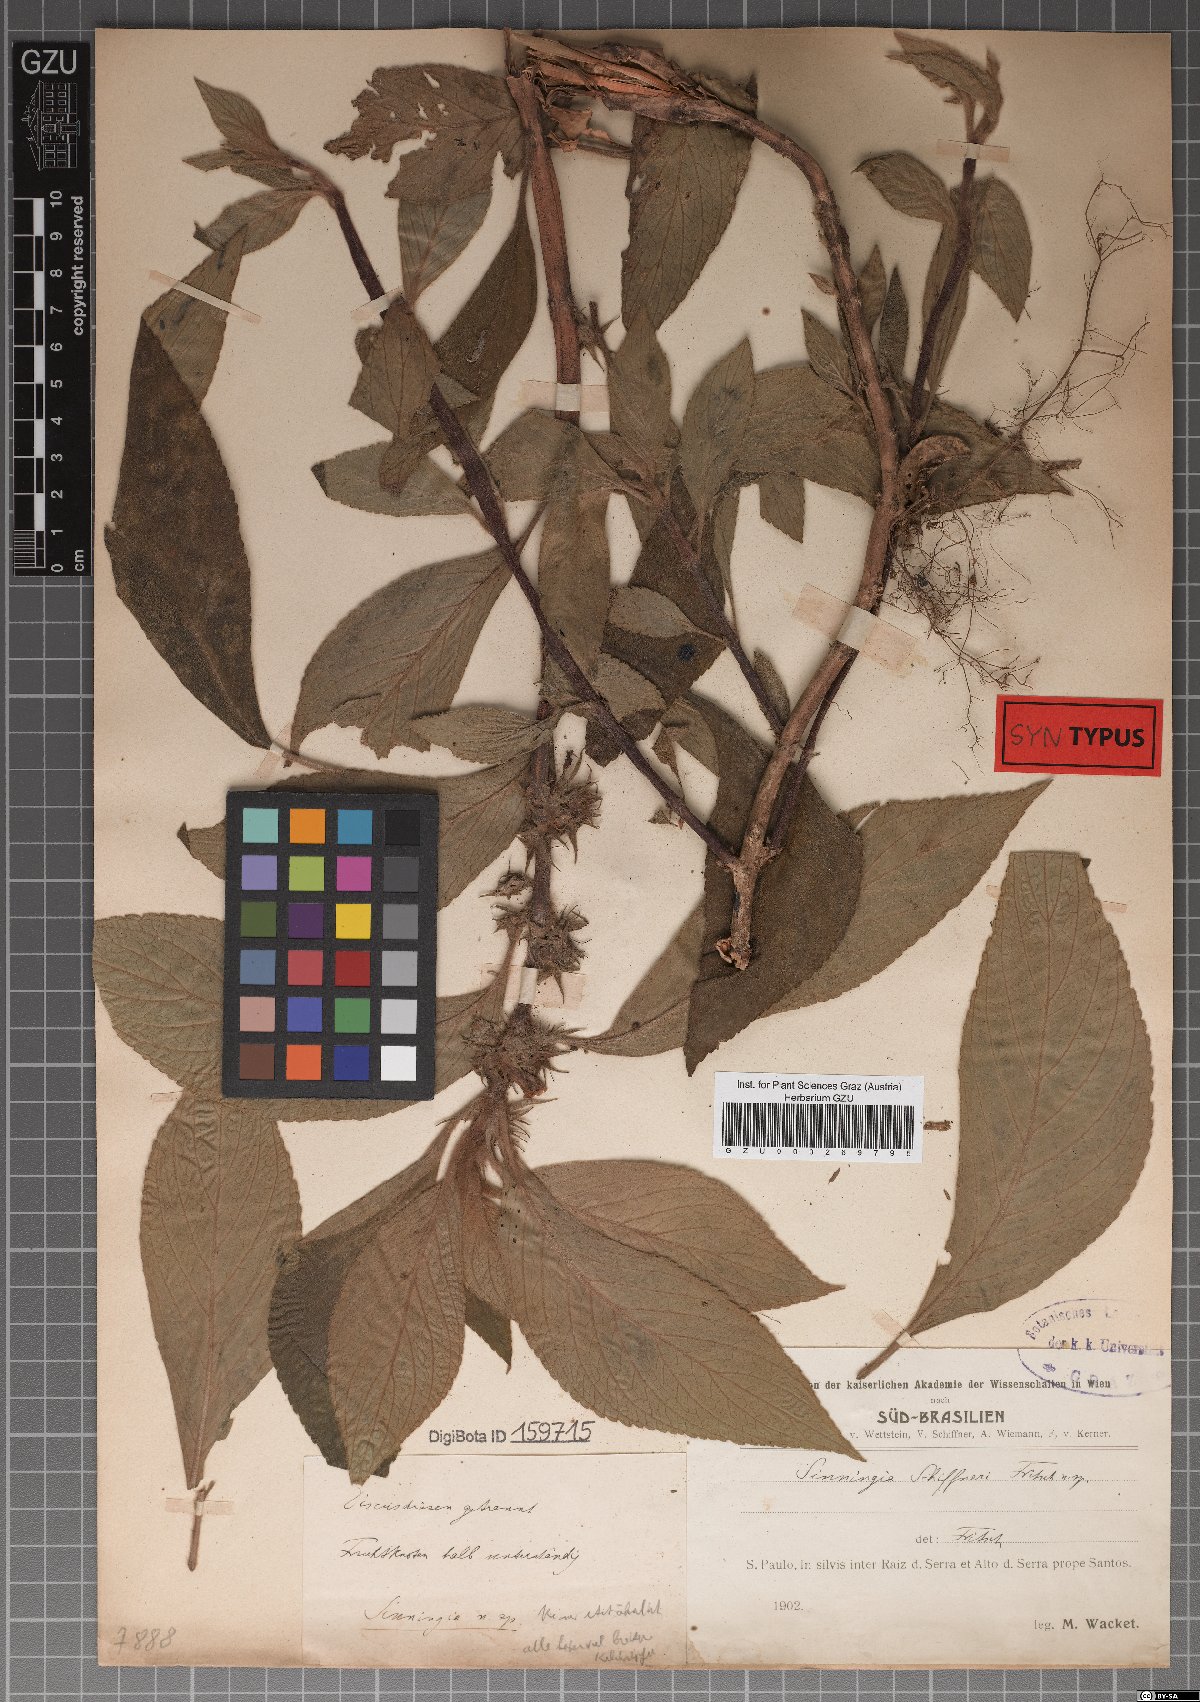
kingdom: Plantae
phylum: Tracheophyta
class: Magnoliopsida
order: Lamiales
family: Gesneriaceae
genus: Sinningia
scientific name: Sinningia schiffneri
